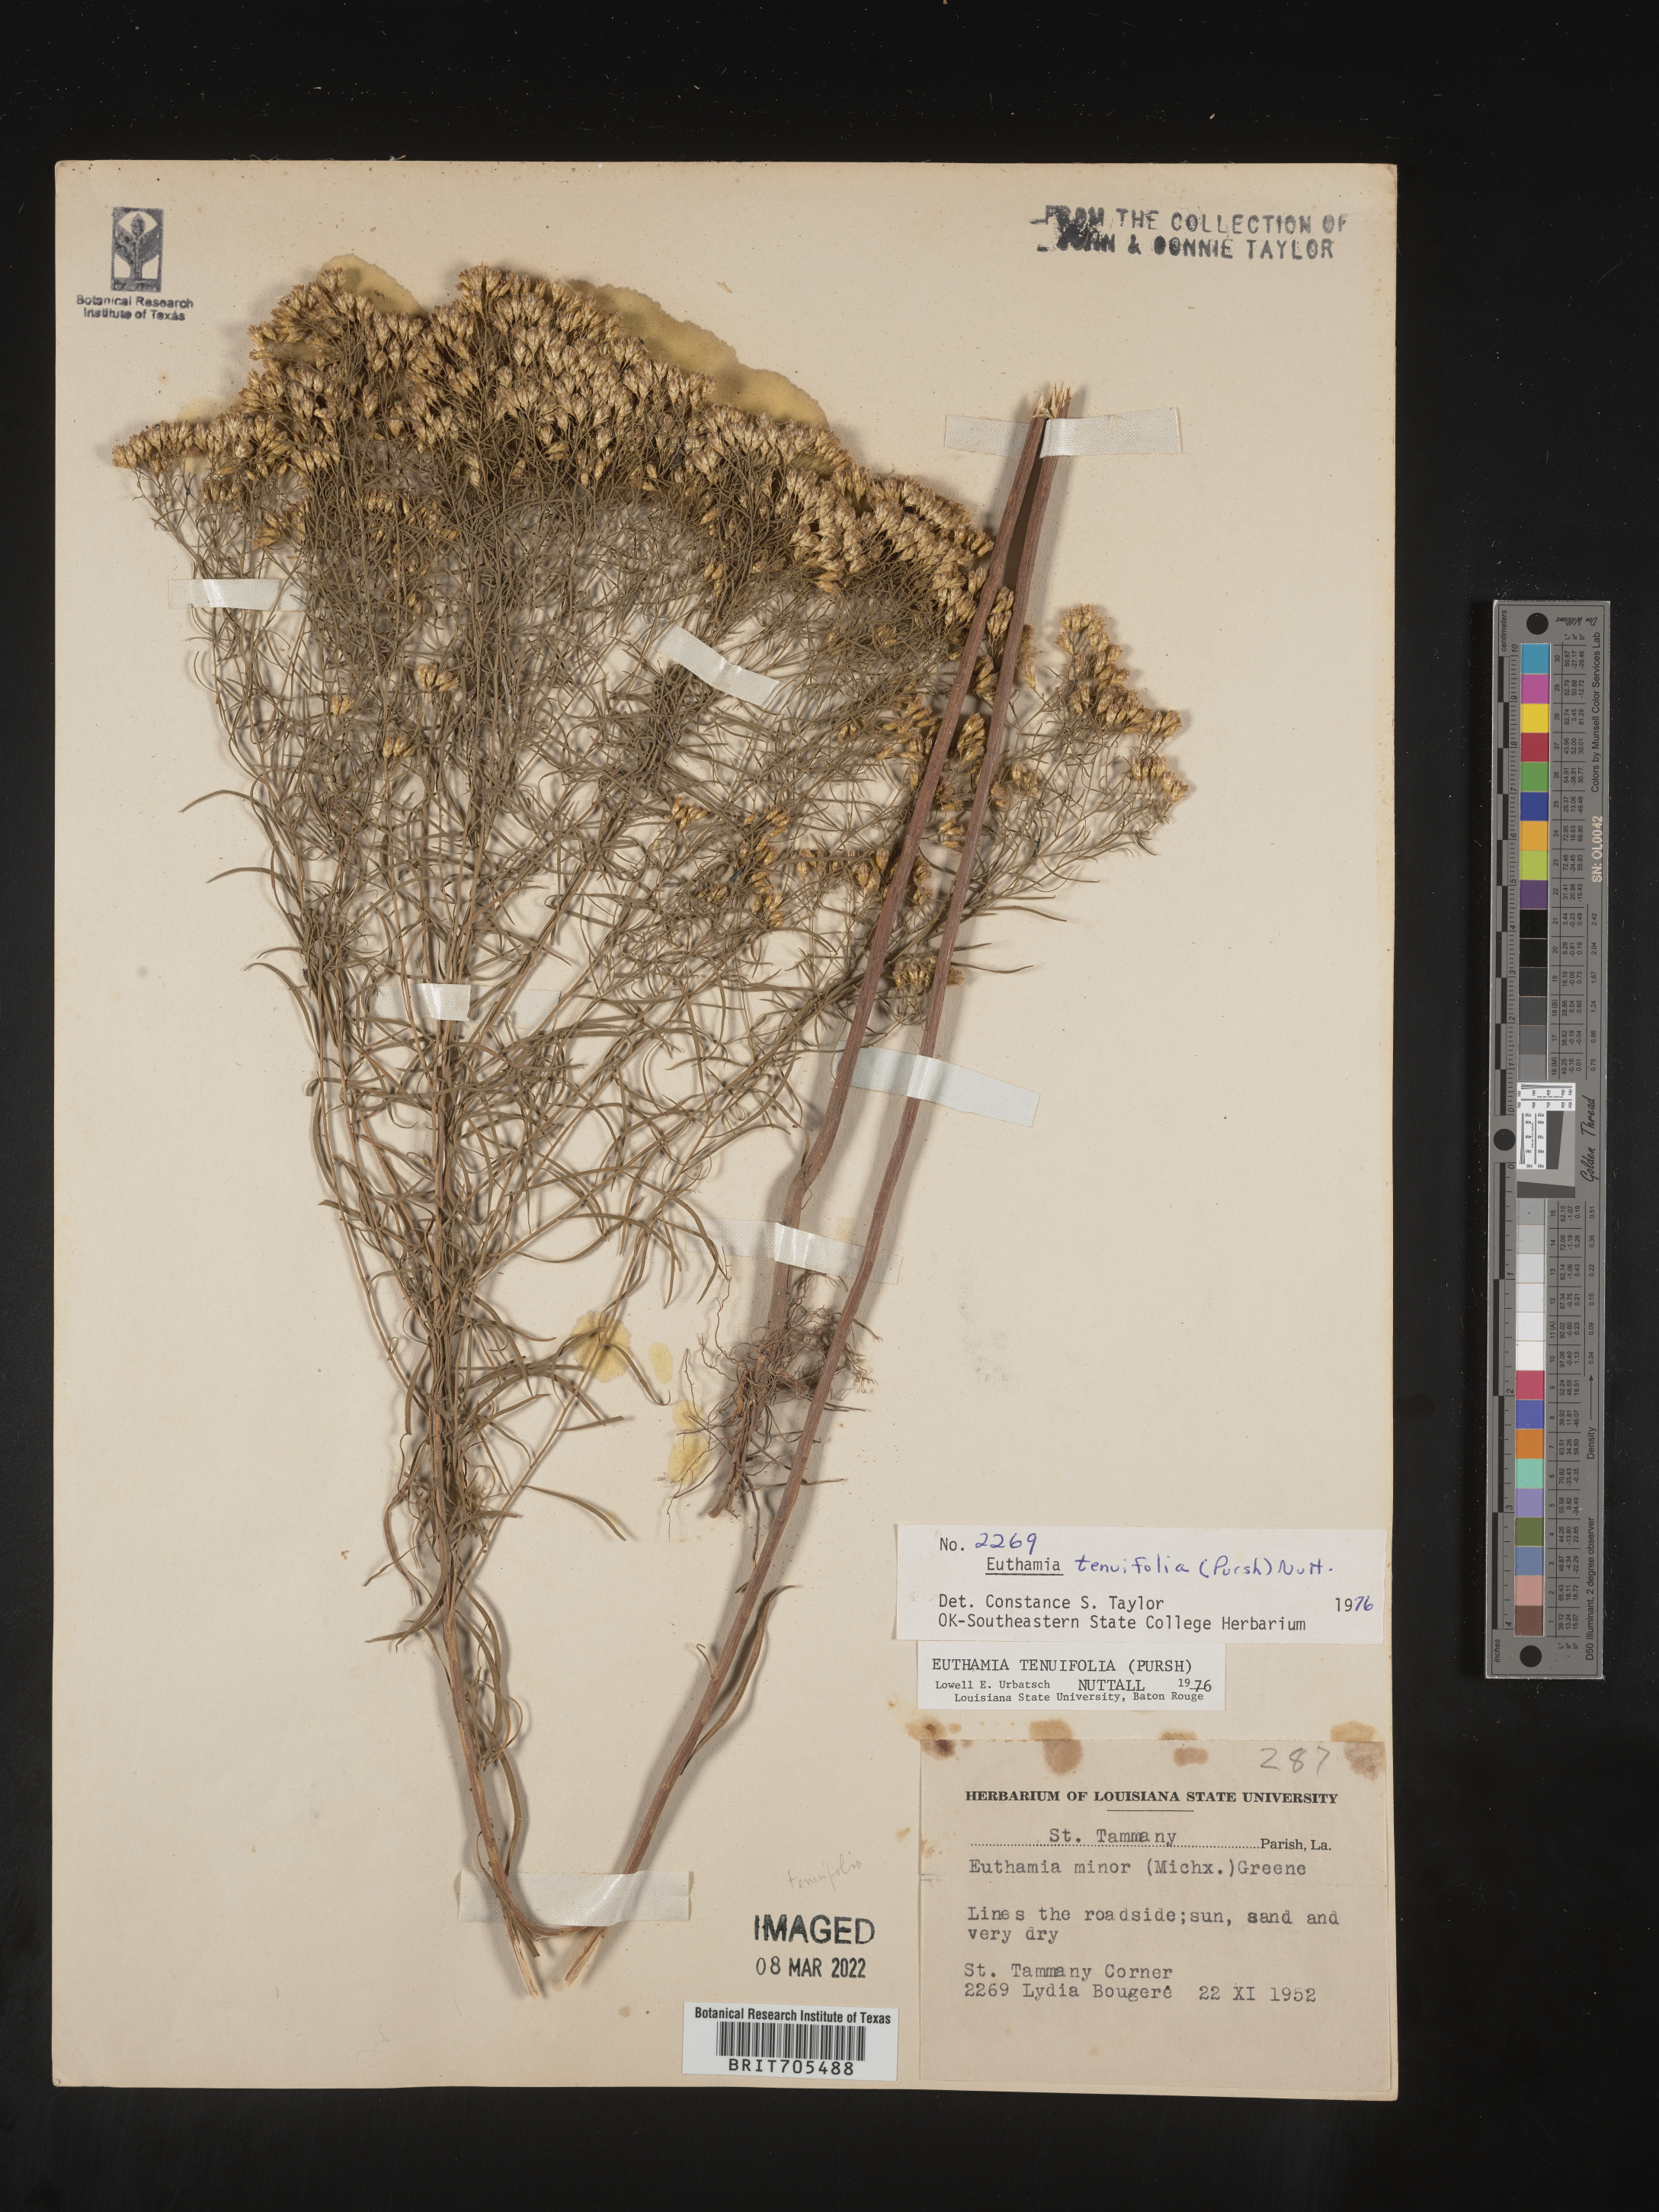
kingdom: Plantae
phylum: Tracheophyta
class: Magnoliopsida
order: Asterales
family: Asteraceae
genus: Euthamia
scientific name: Euthamia caroliniana
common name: Coastal plain goldentop
